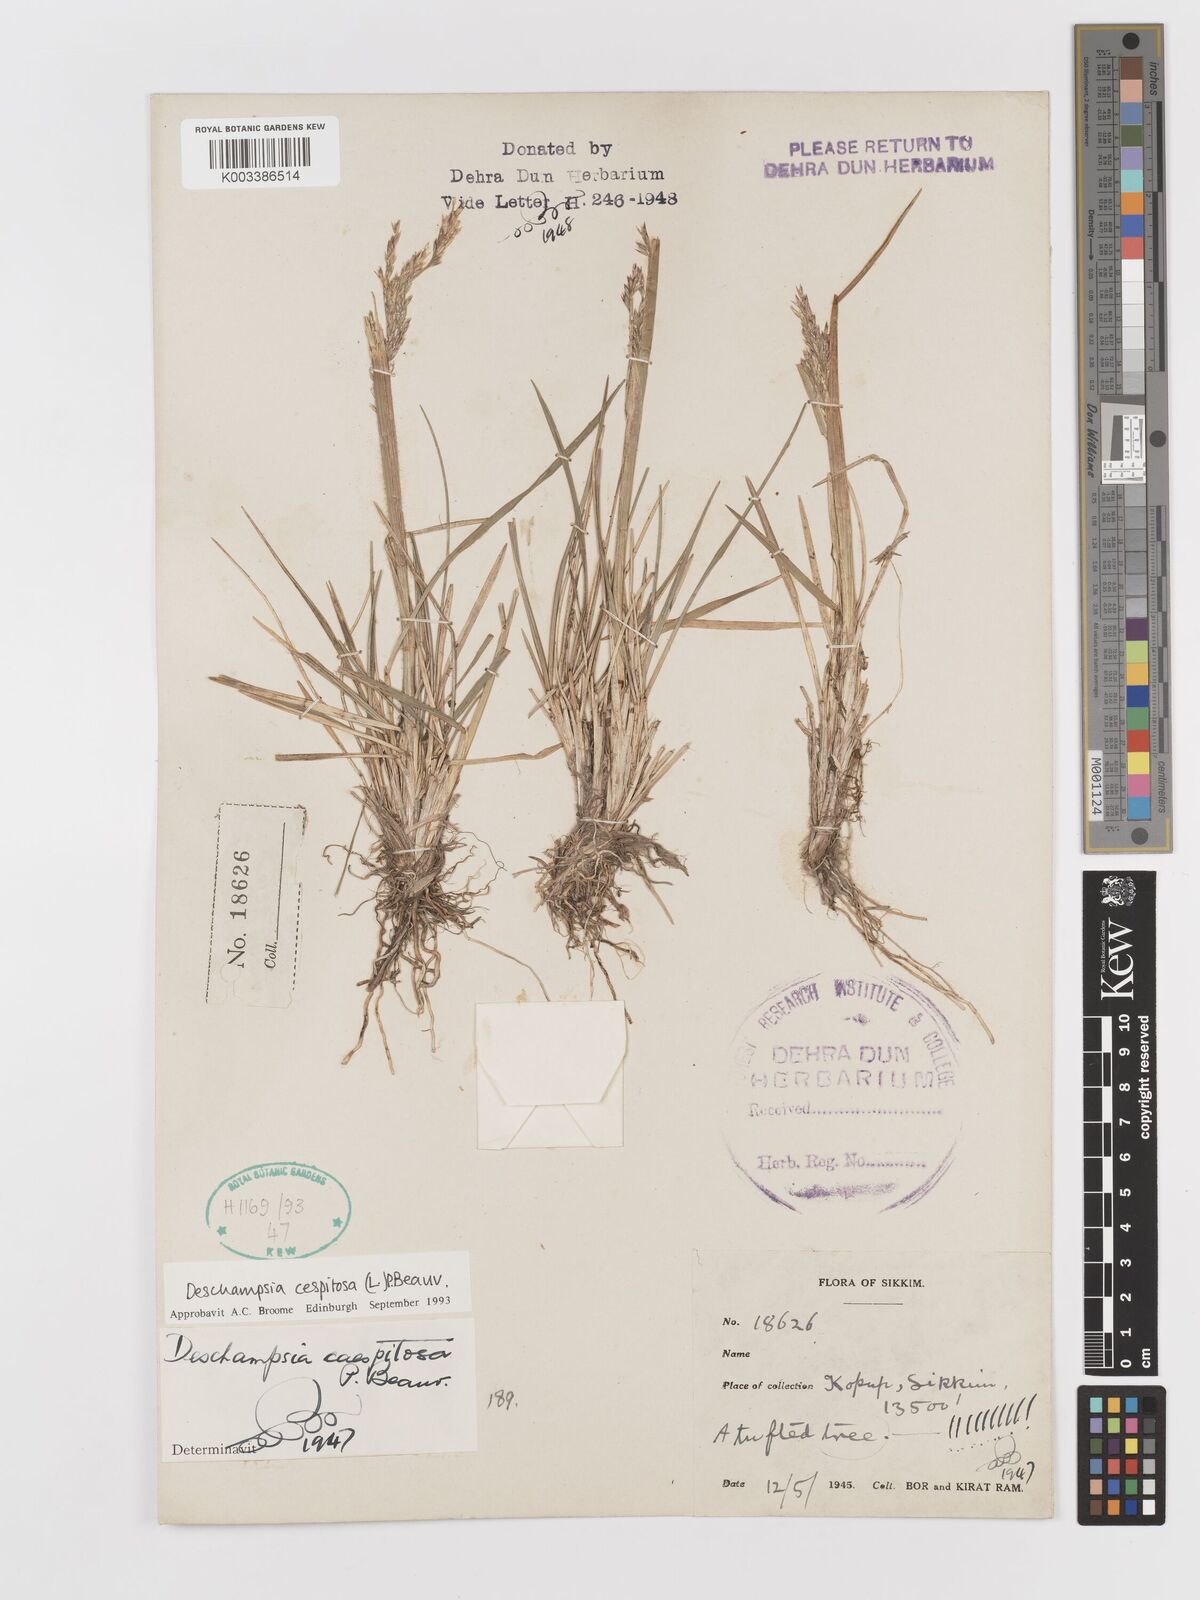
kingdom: Plantae
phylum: Tracheophyta
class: Liliopsida
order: Poales
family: Poaceae
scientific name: Poaceae
